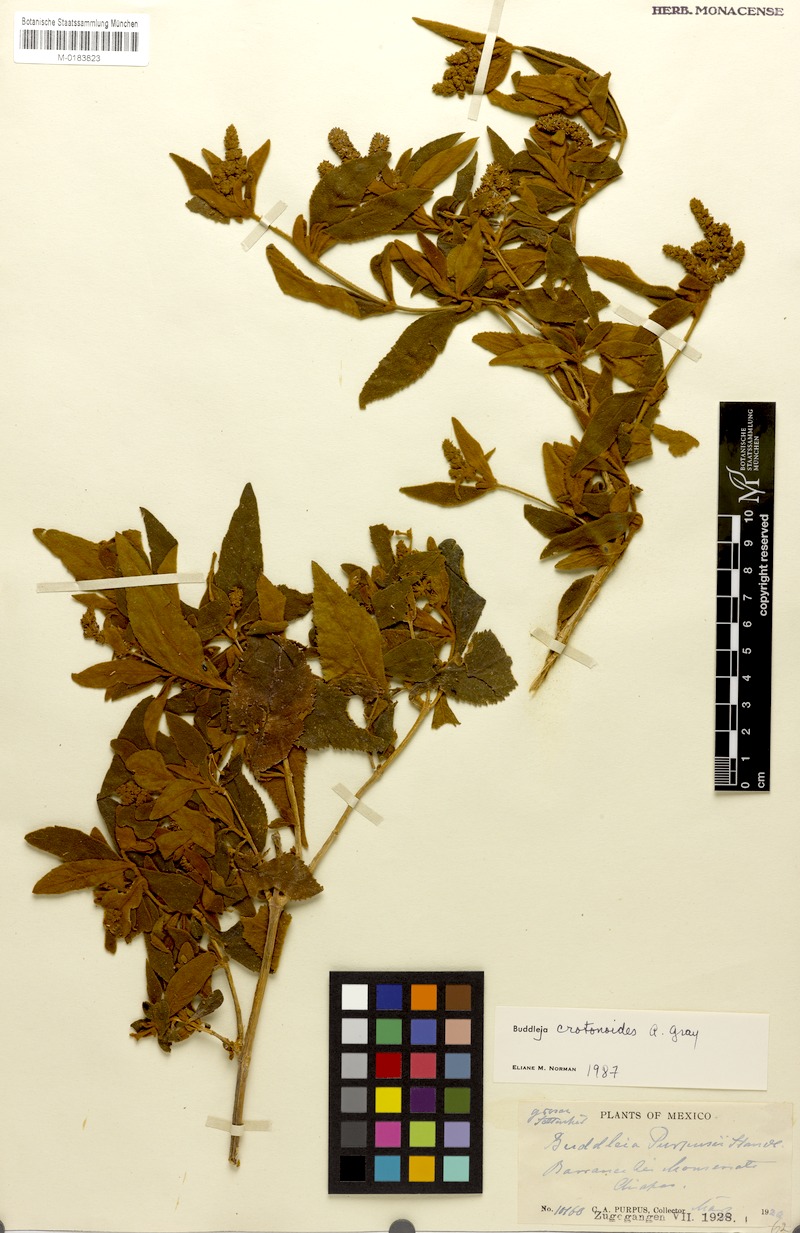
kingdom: Plantae
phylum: Tracheophyta
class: Magnoliopsida
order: Lamiales
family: Scrophulariaceae
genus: Buddleja
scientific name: Buddleja crotonoides
